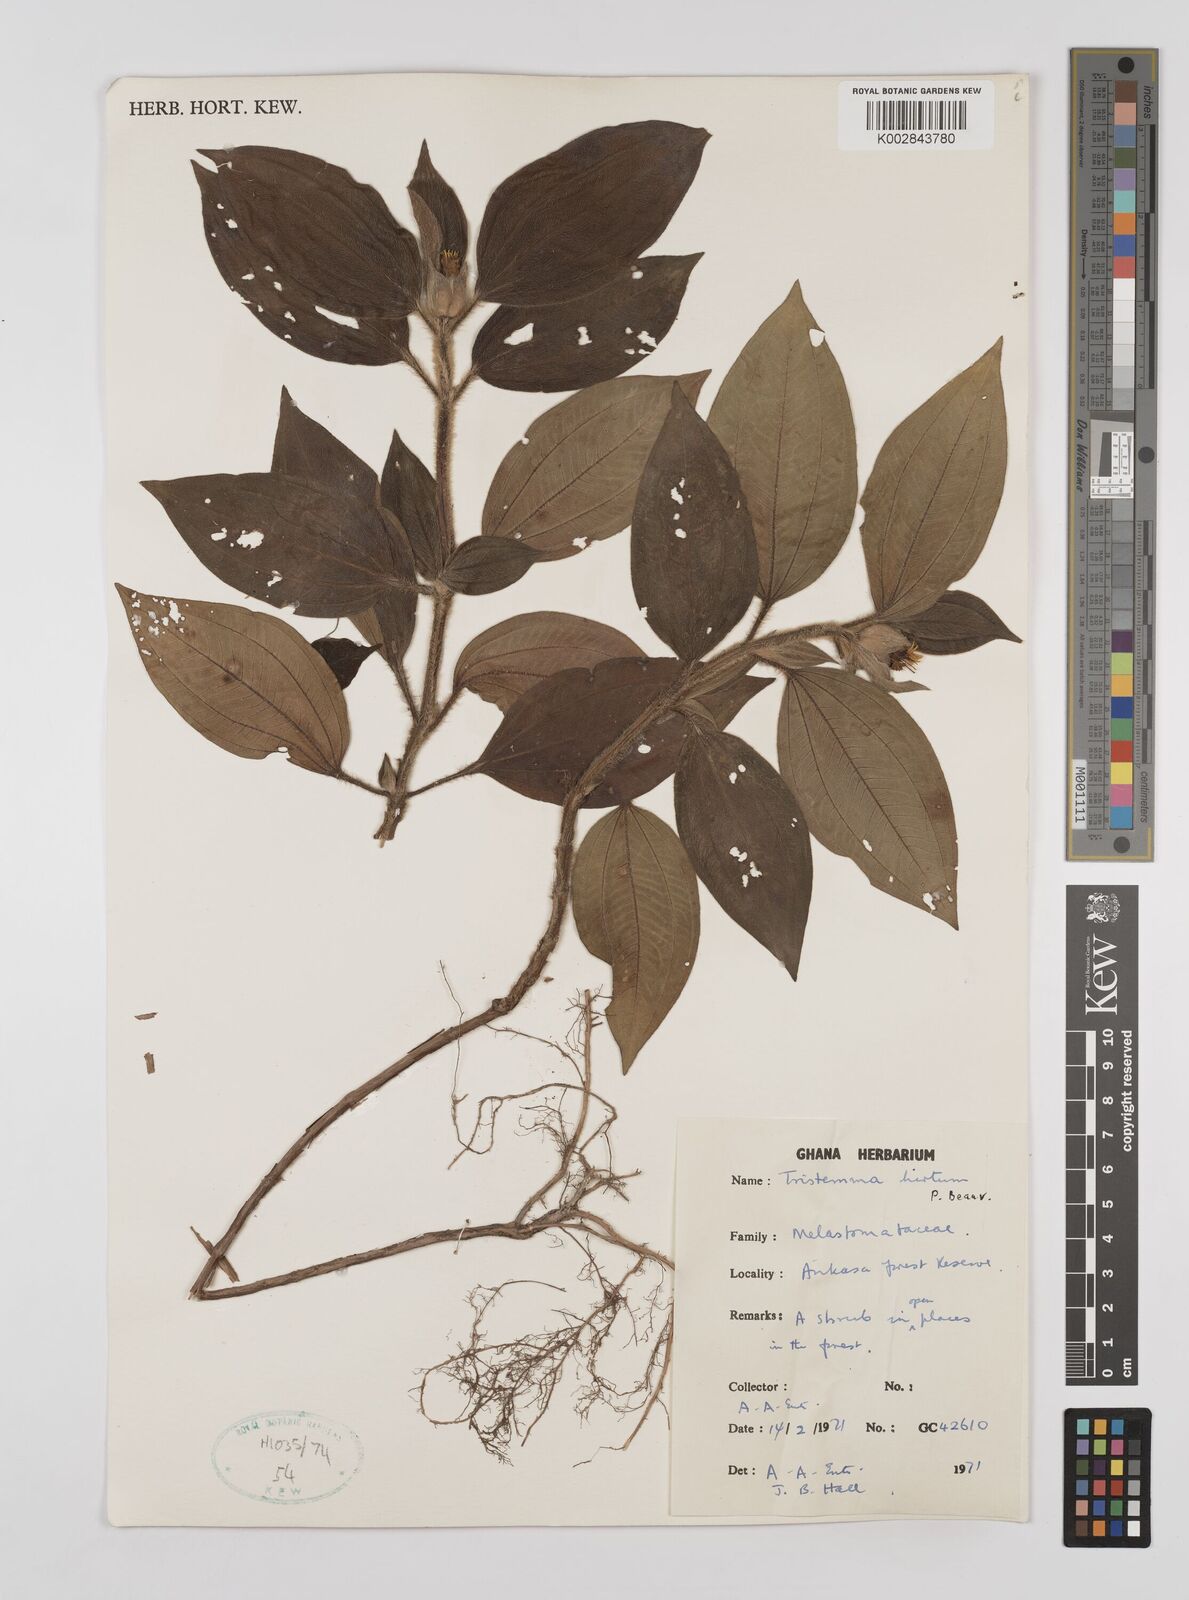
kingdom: Plantae
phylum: Tracheophyta
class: Magnoliopsida
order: Myrtales
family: Melastomataceae
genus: Tristemma
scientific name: Tristemma
